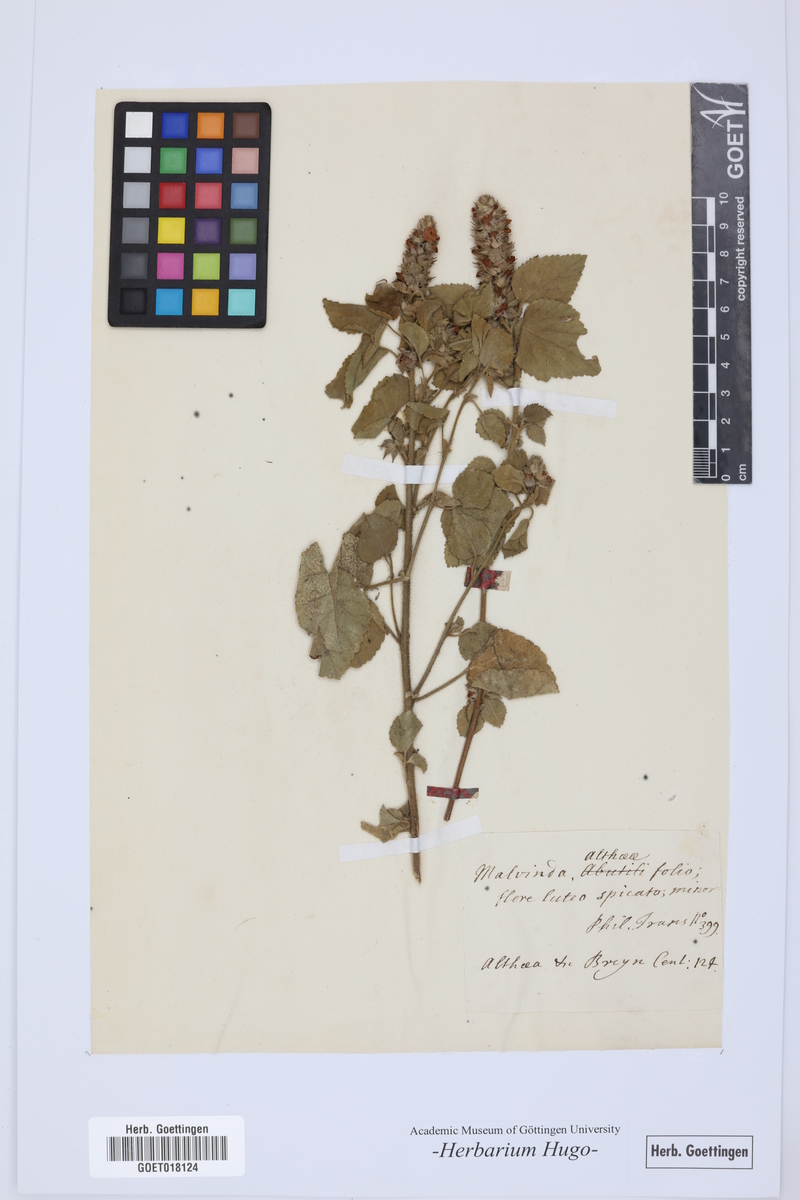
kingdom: Plantae
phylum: Tracheophyta
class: Magnoliopsida
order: Malvales
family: Malvaceae
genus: Malvastrum
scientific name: Malvastrum americanum
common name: Spiked malvastrum
